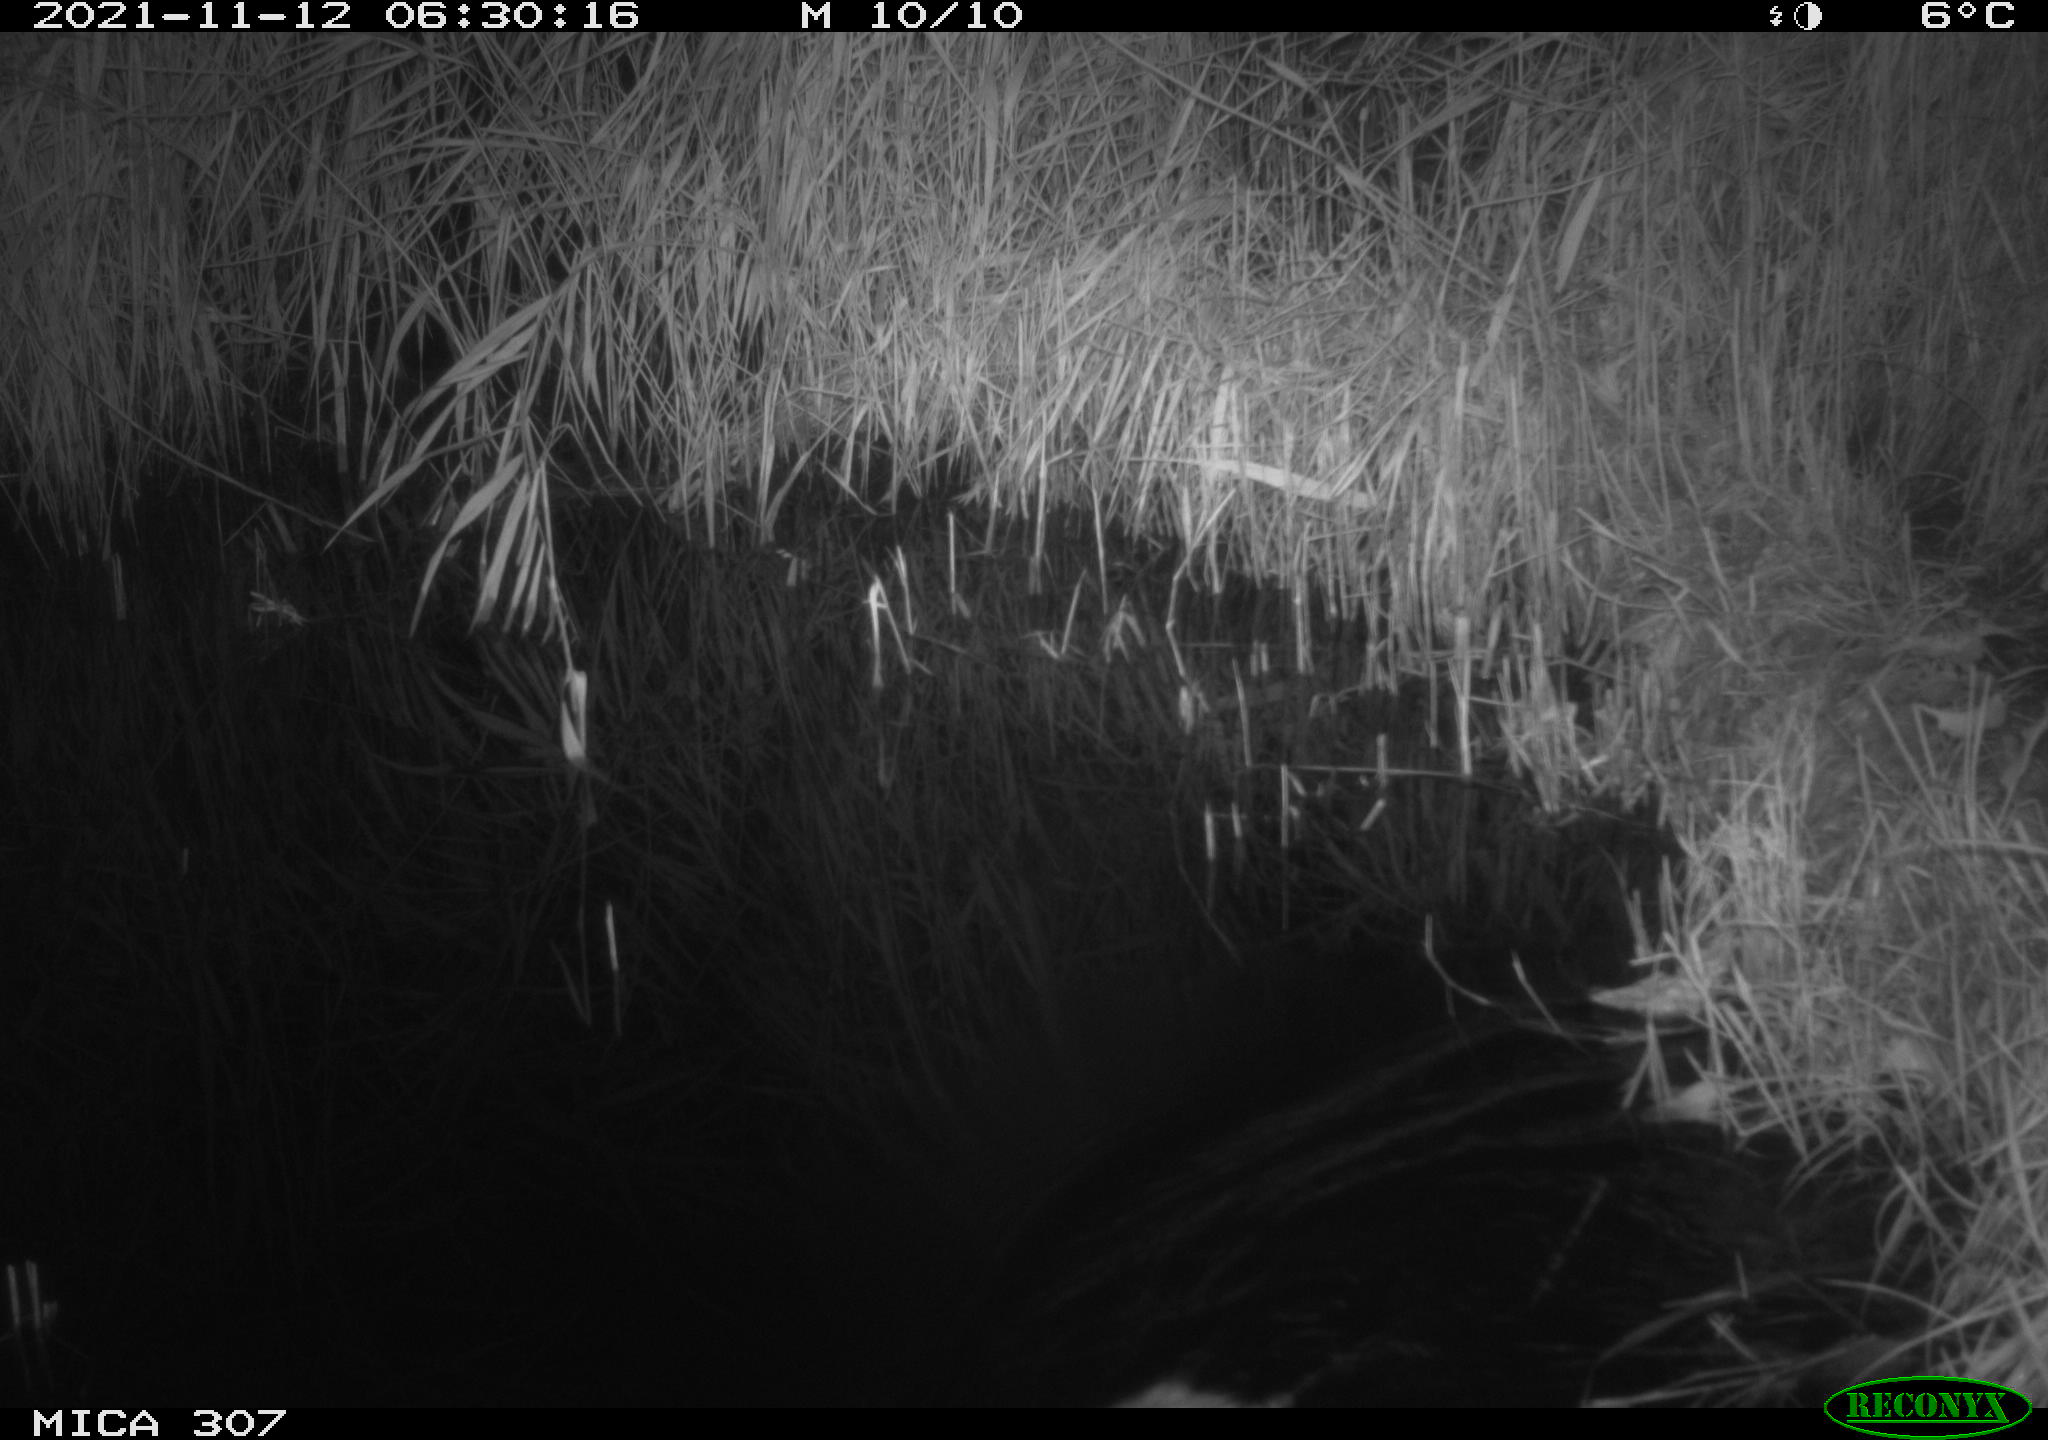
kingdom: Animalia
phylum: Chordata
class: Mammalia
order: Rodentia
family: Muridae
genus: Rattus
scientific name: Rattus norvegicus
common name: Brown rat
